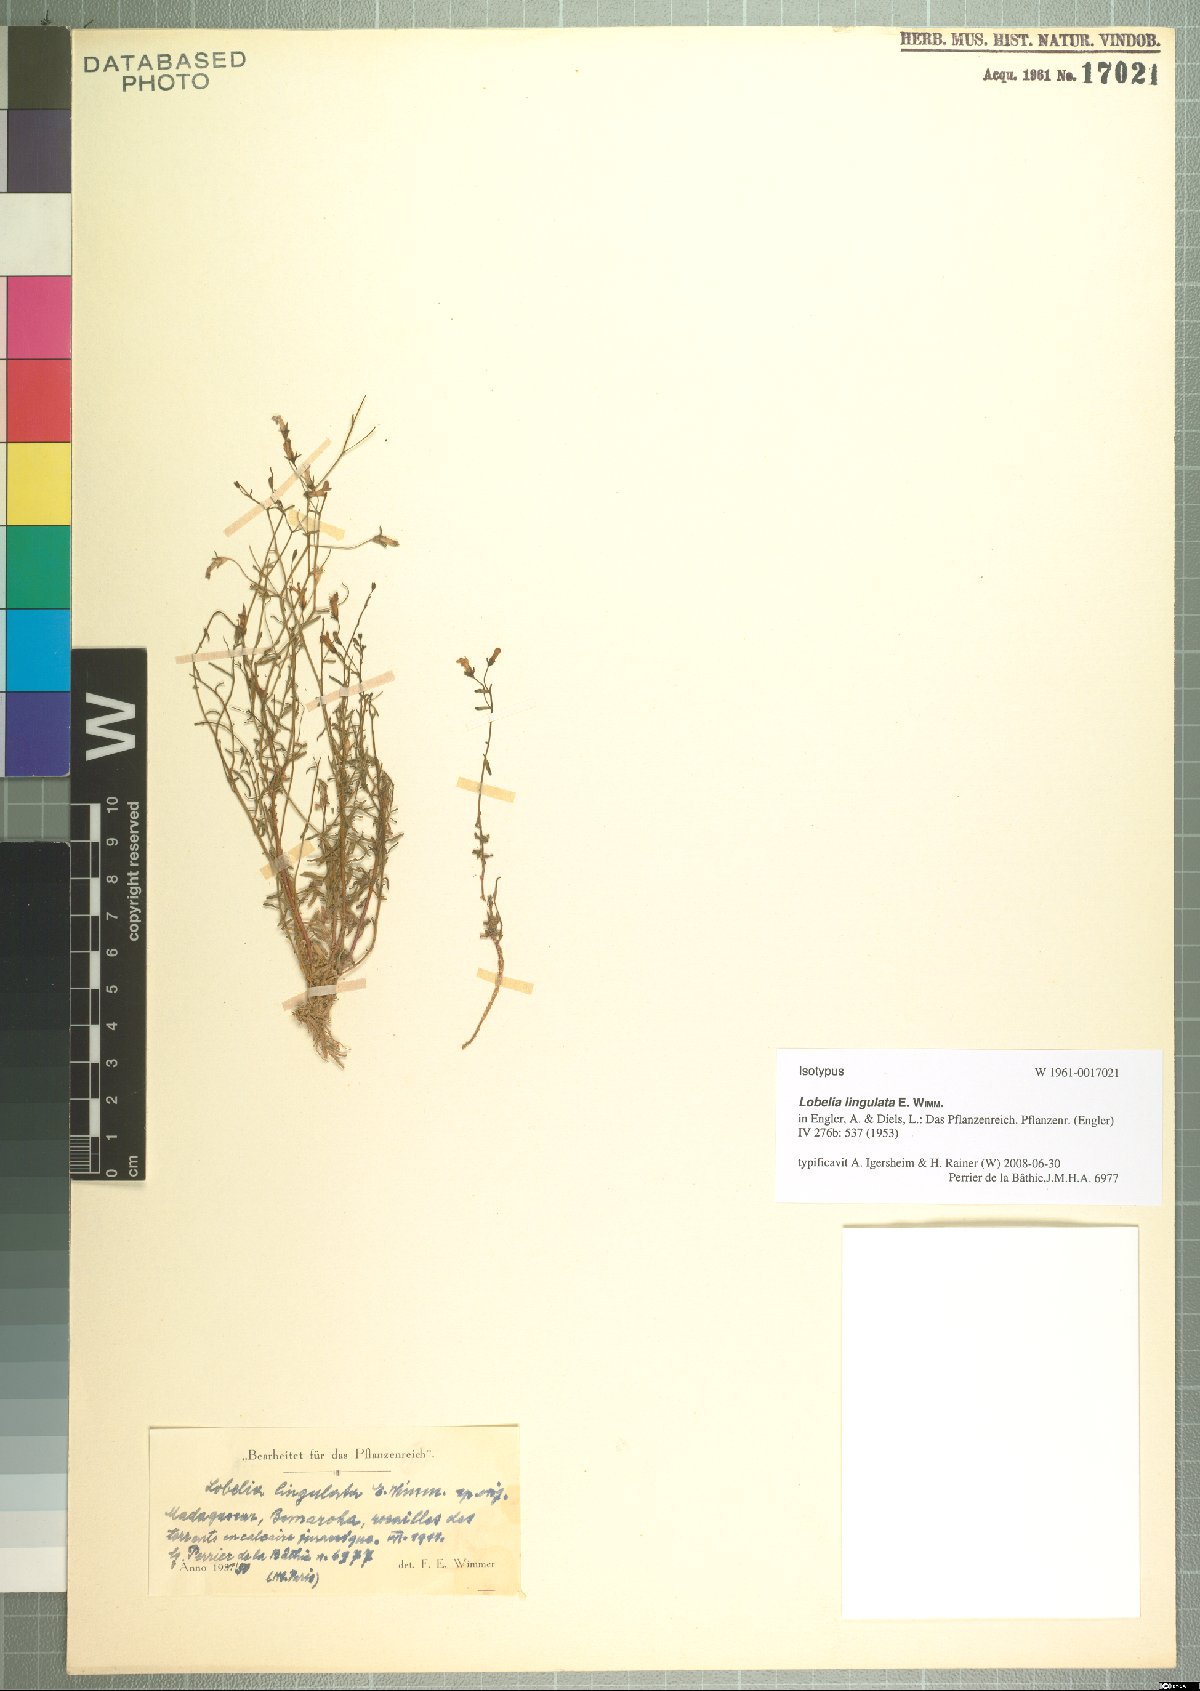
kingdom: Plantae
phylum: Tracheophyta
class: Magnoliopsida
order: Asterales
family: Campanulaceae
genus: Lobelia
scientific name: Lobelia lingulata
